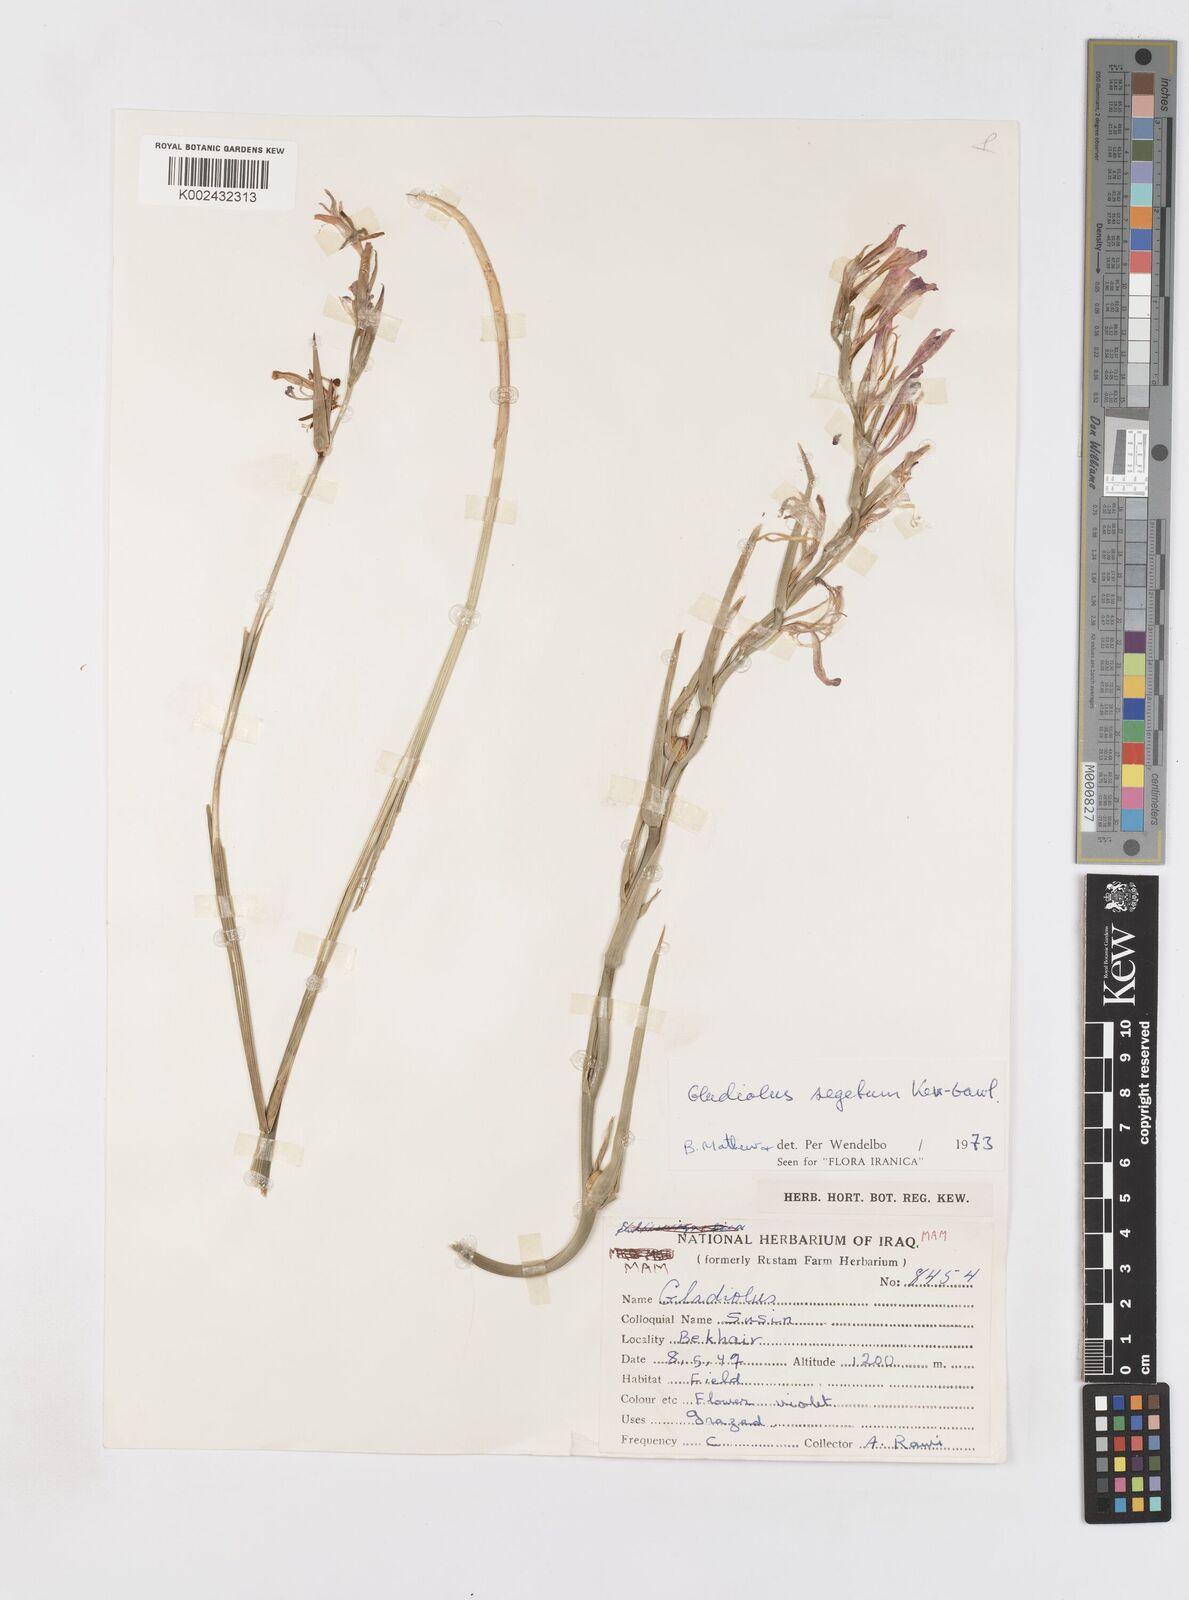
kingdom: Plantae
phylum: Tracheophyta
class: Liliopsida
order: Asparagales
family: Iridaceae
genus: Gladiolus
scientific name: Gladiolus italicus
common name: Field gladiolus
